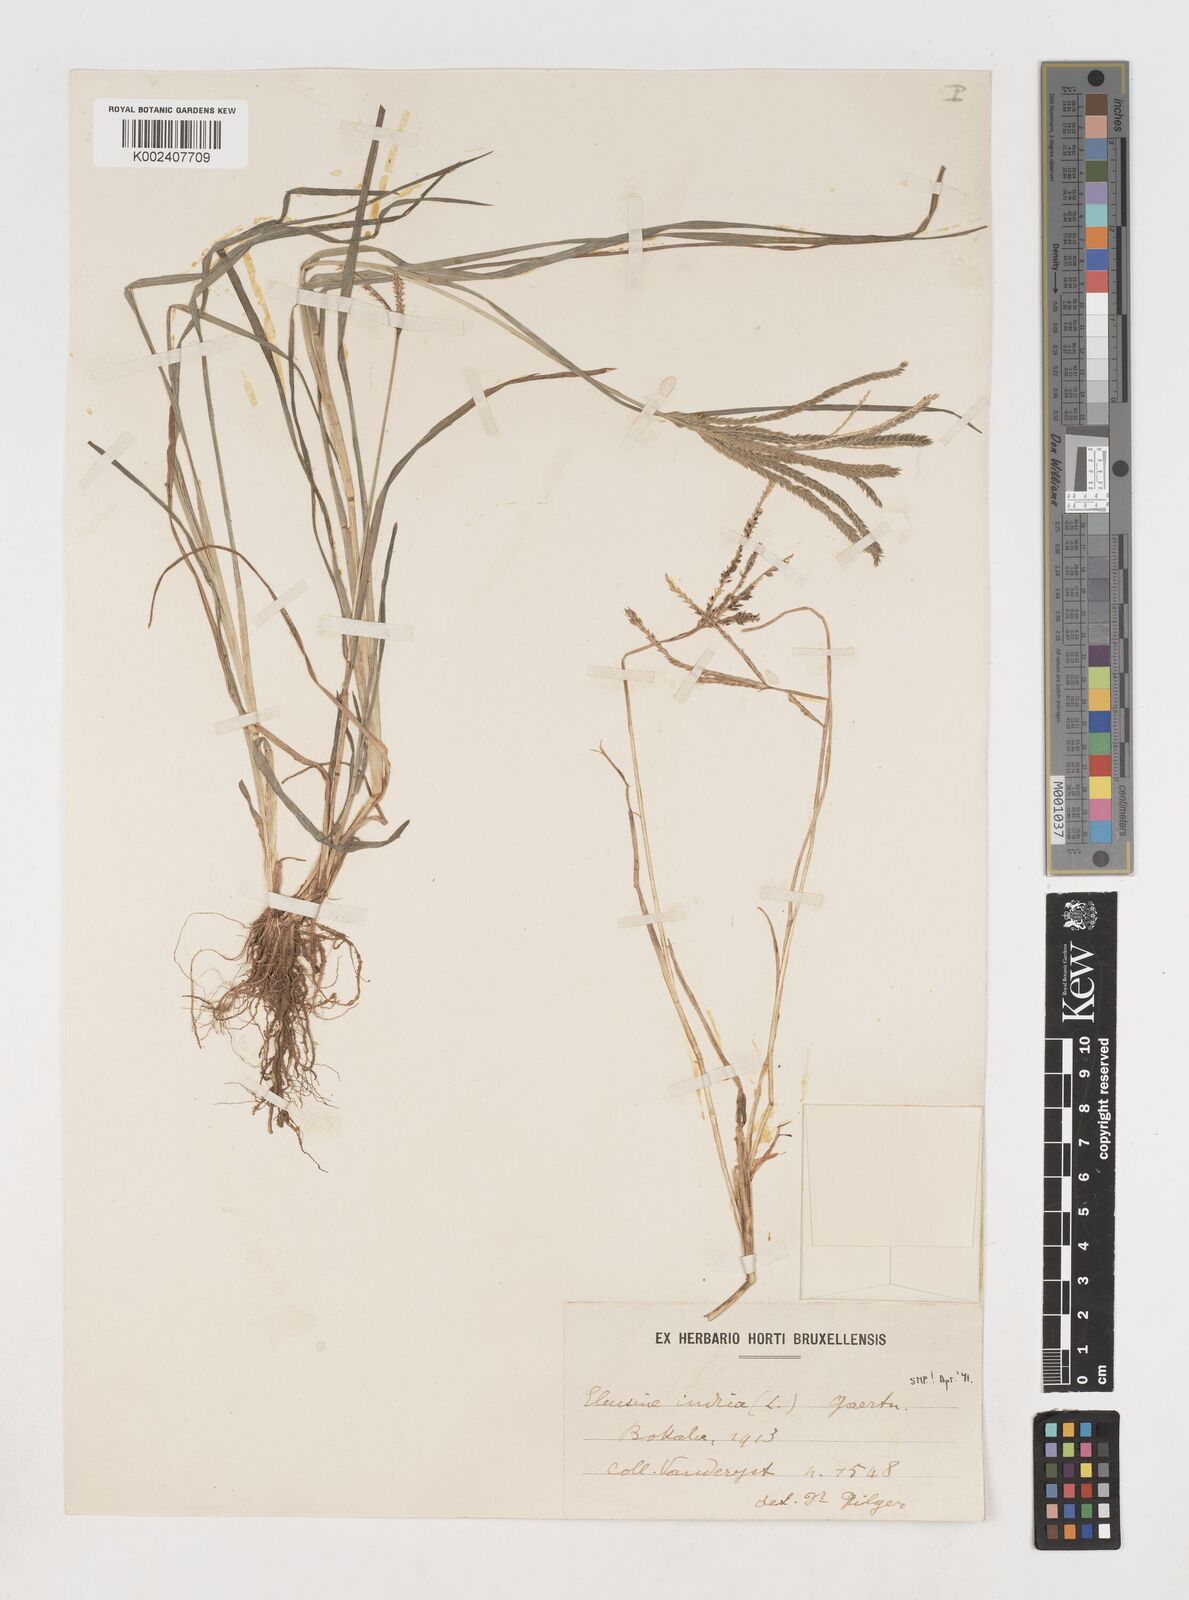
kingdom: Plantae
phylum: Tracheophyta
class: Liliopsida
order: Poales
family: Poaceae
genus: Eleusine
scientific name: Eleusine indica
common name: Yard-grass
